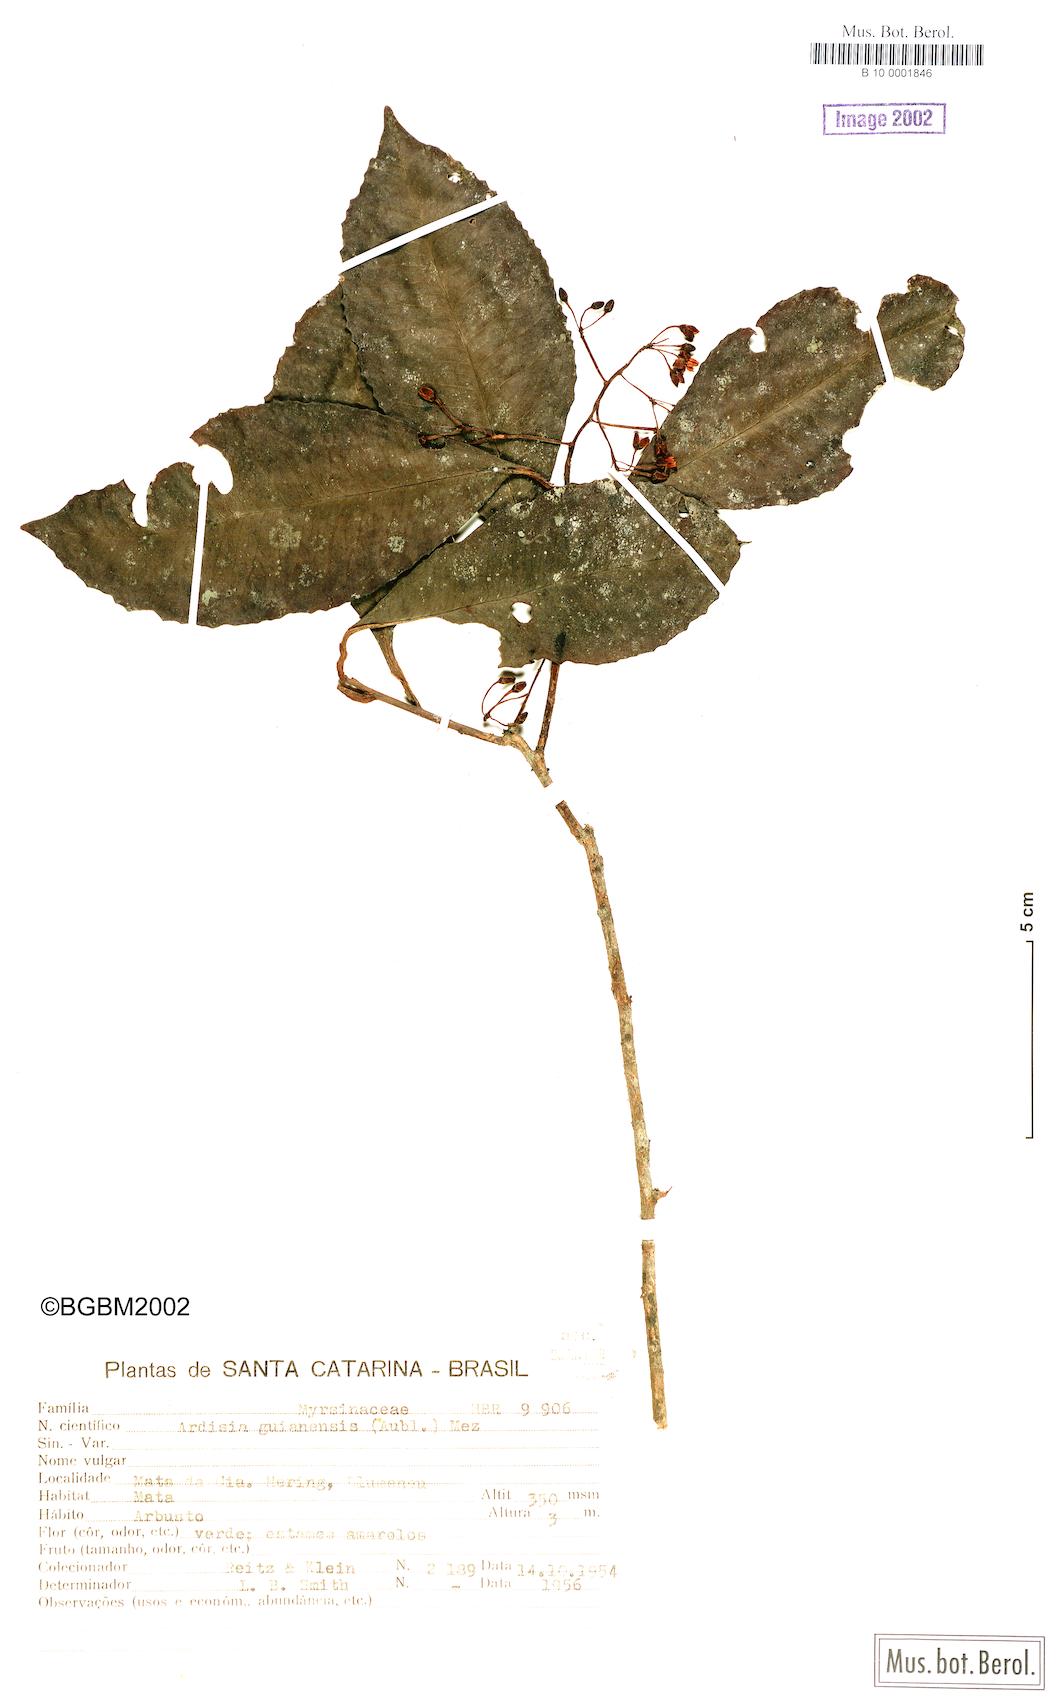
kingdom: Plantae
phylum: Tracheophyta
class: Magnoliopsida
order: Ericales
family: Primulaceae
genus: Ardisia
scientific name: Ardisia guianensis
